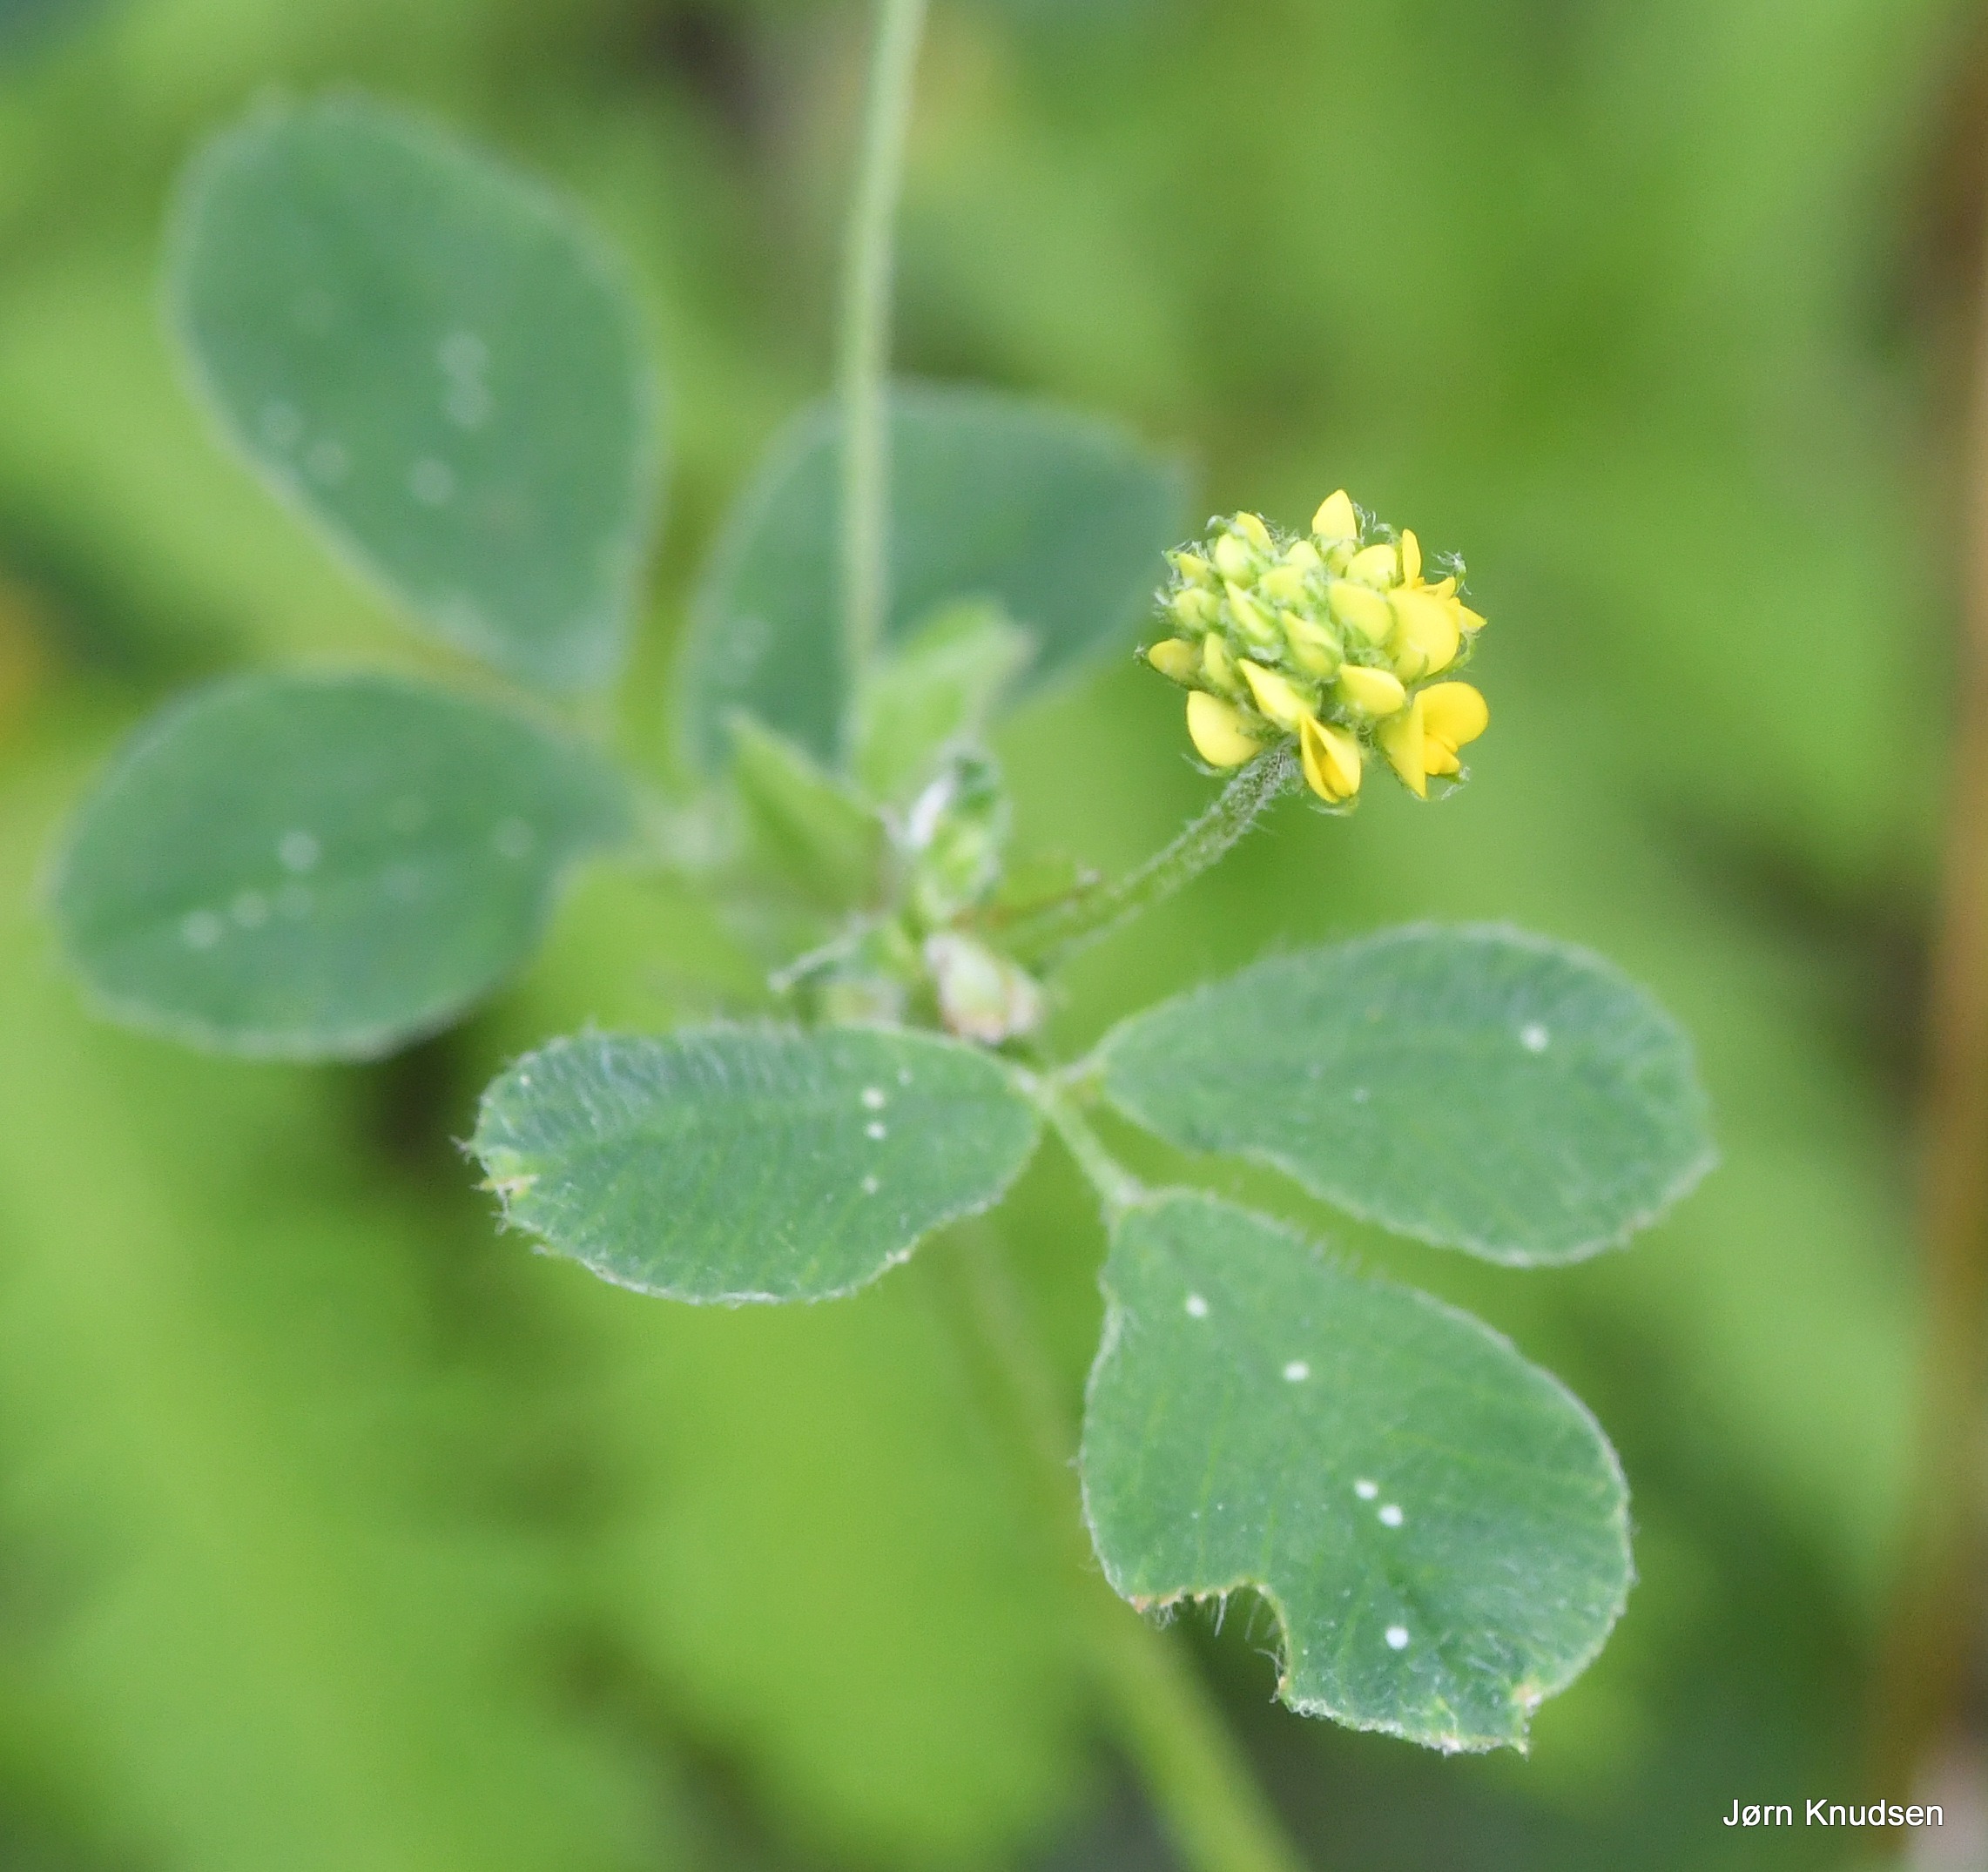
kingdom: Plantae
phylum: Tracheophyta
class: Magnoliopsida
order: Fabales
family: Fabaceae
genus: Medicago
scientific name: Medicago lupulina
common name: Humle-sneglebælg
